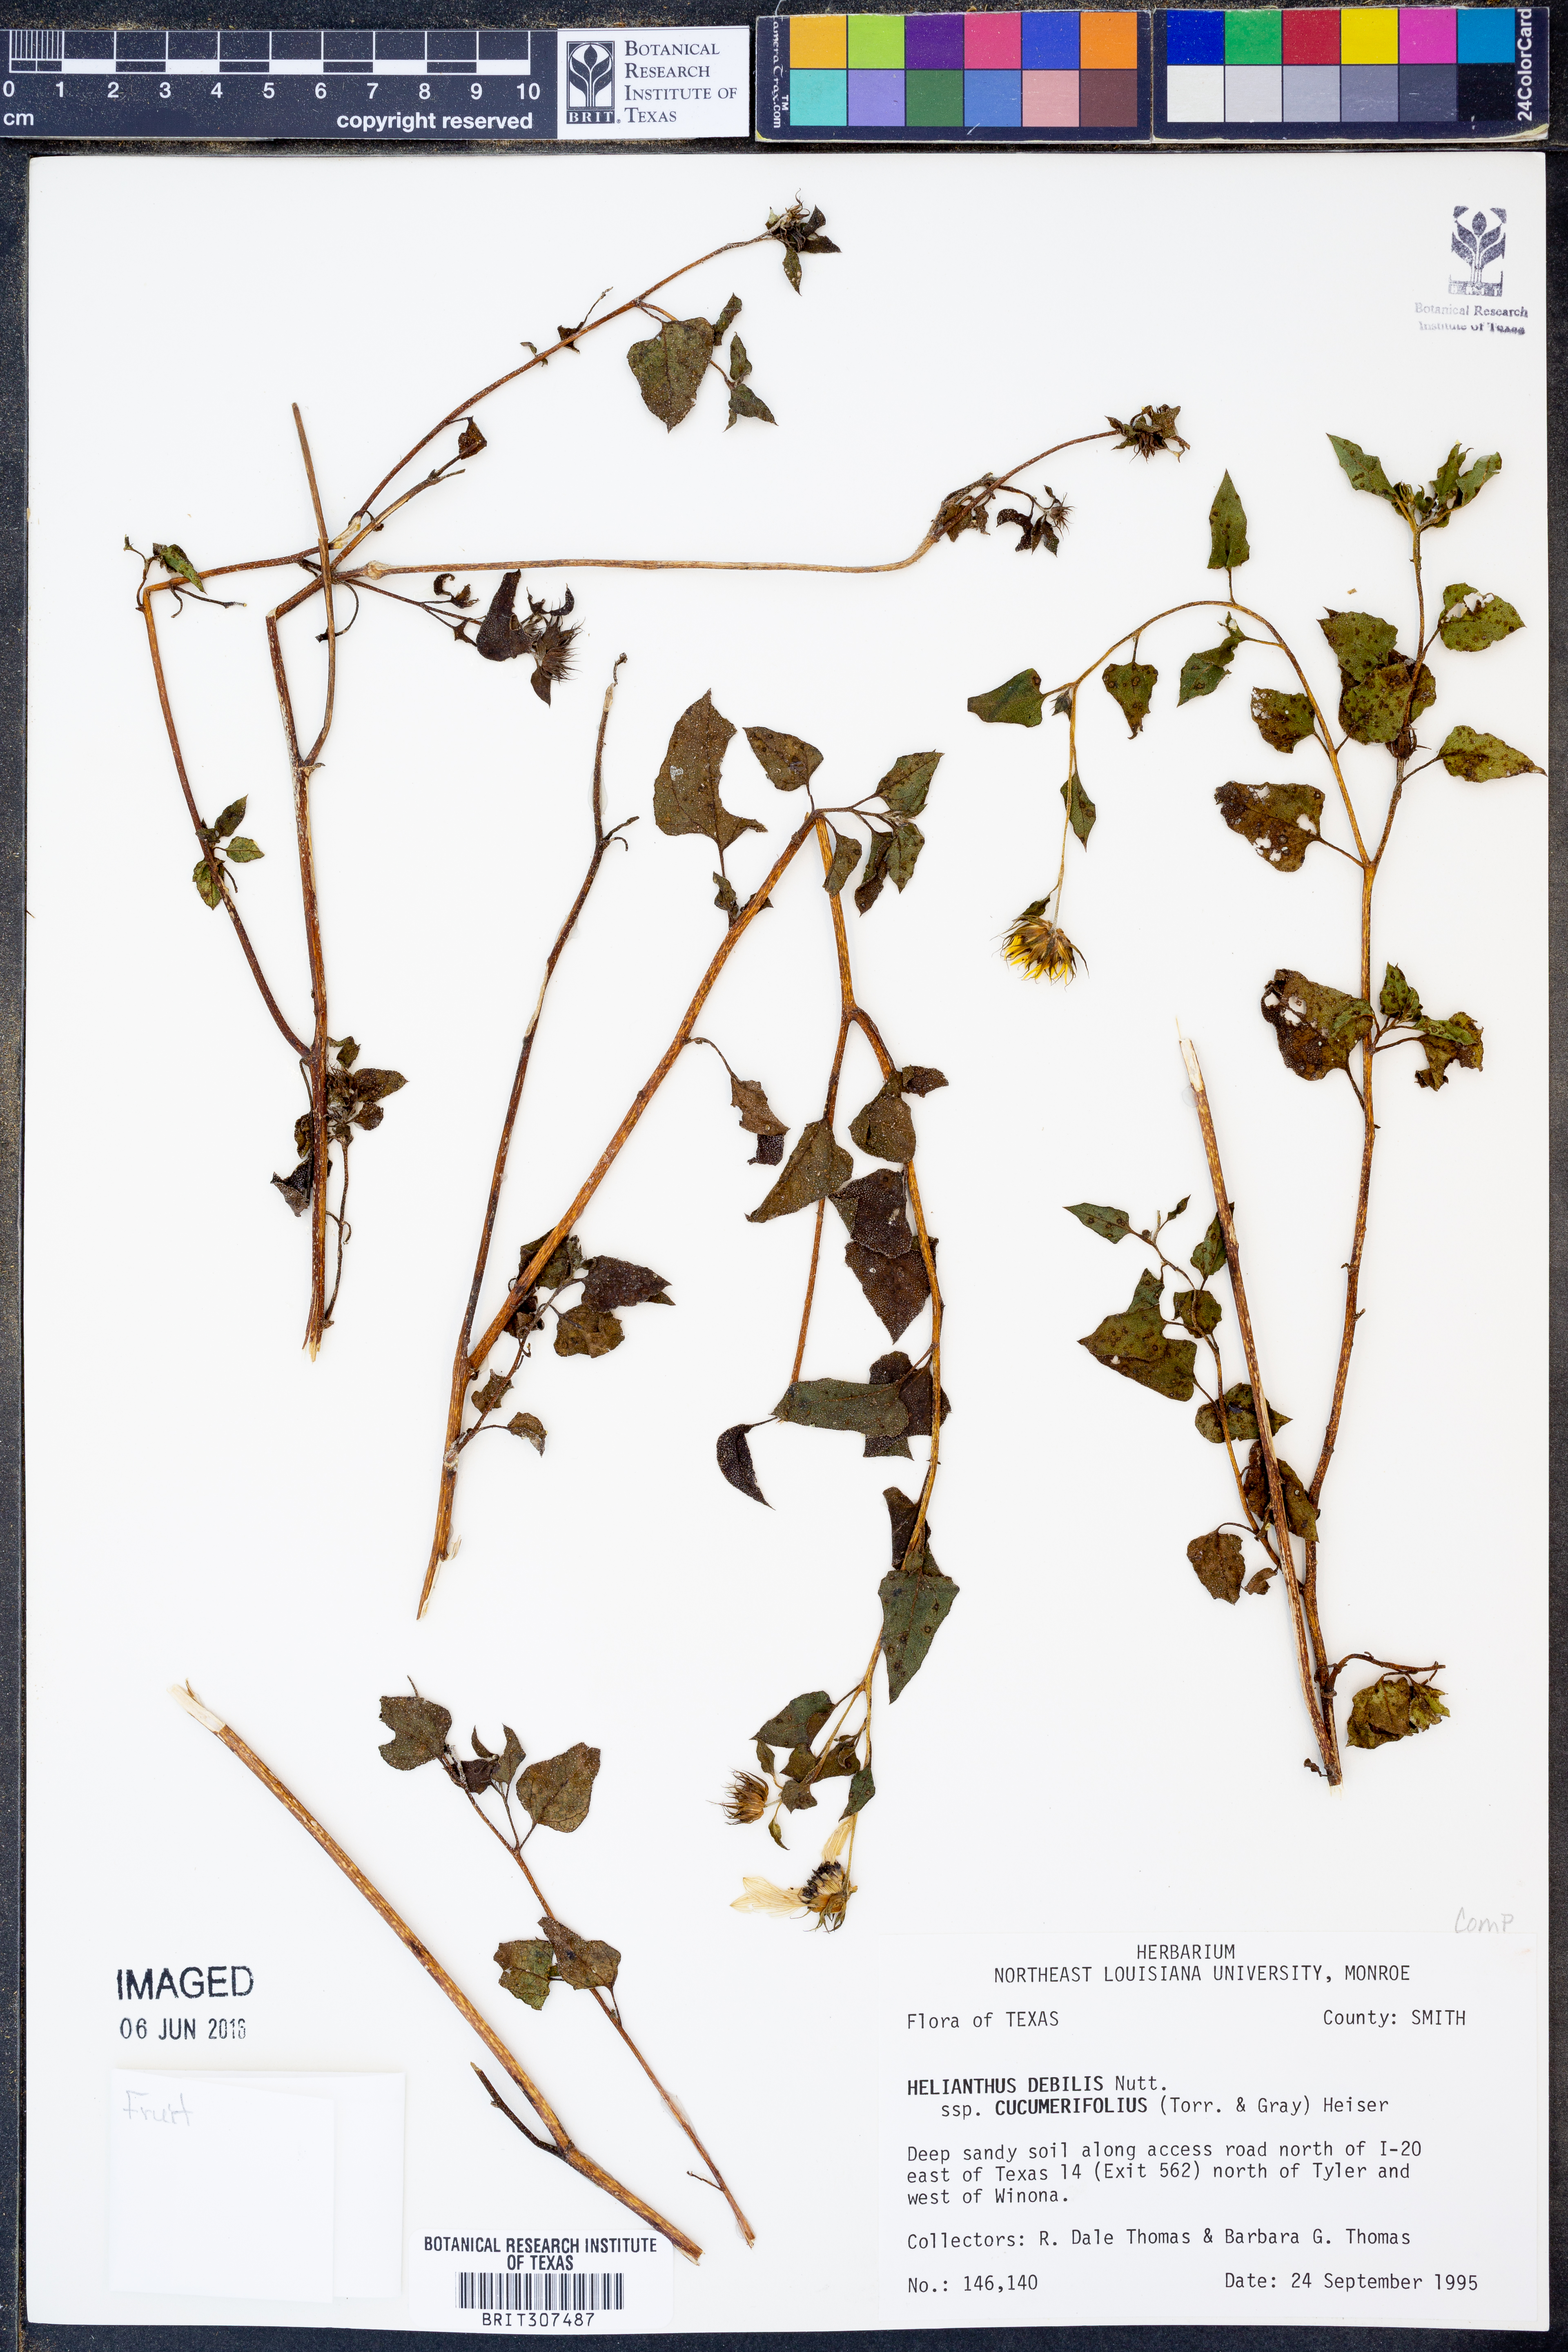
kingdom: Plantae
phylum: Tracheophyta
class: Magnoliopsida
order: Asterales
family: Asteraceae
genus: Helianthus
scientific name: Helianthus debilis
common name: Weak sunflower
